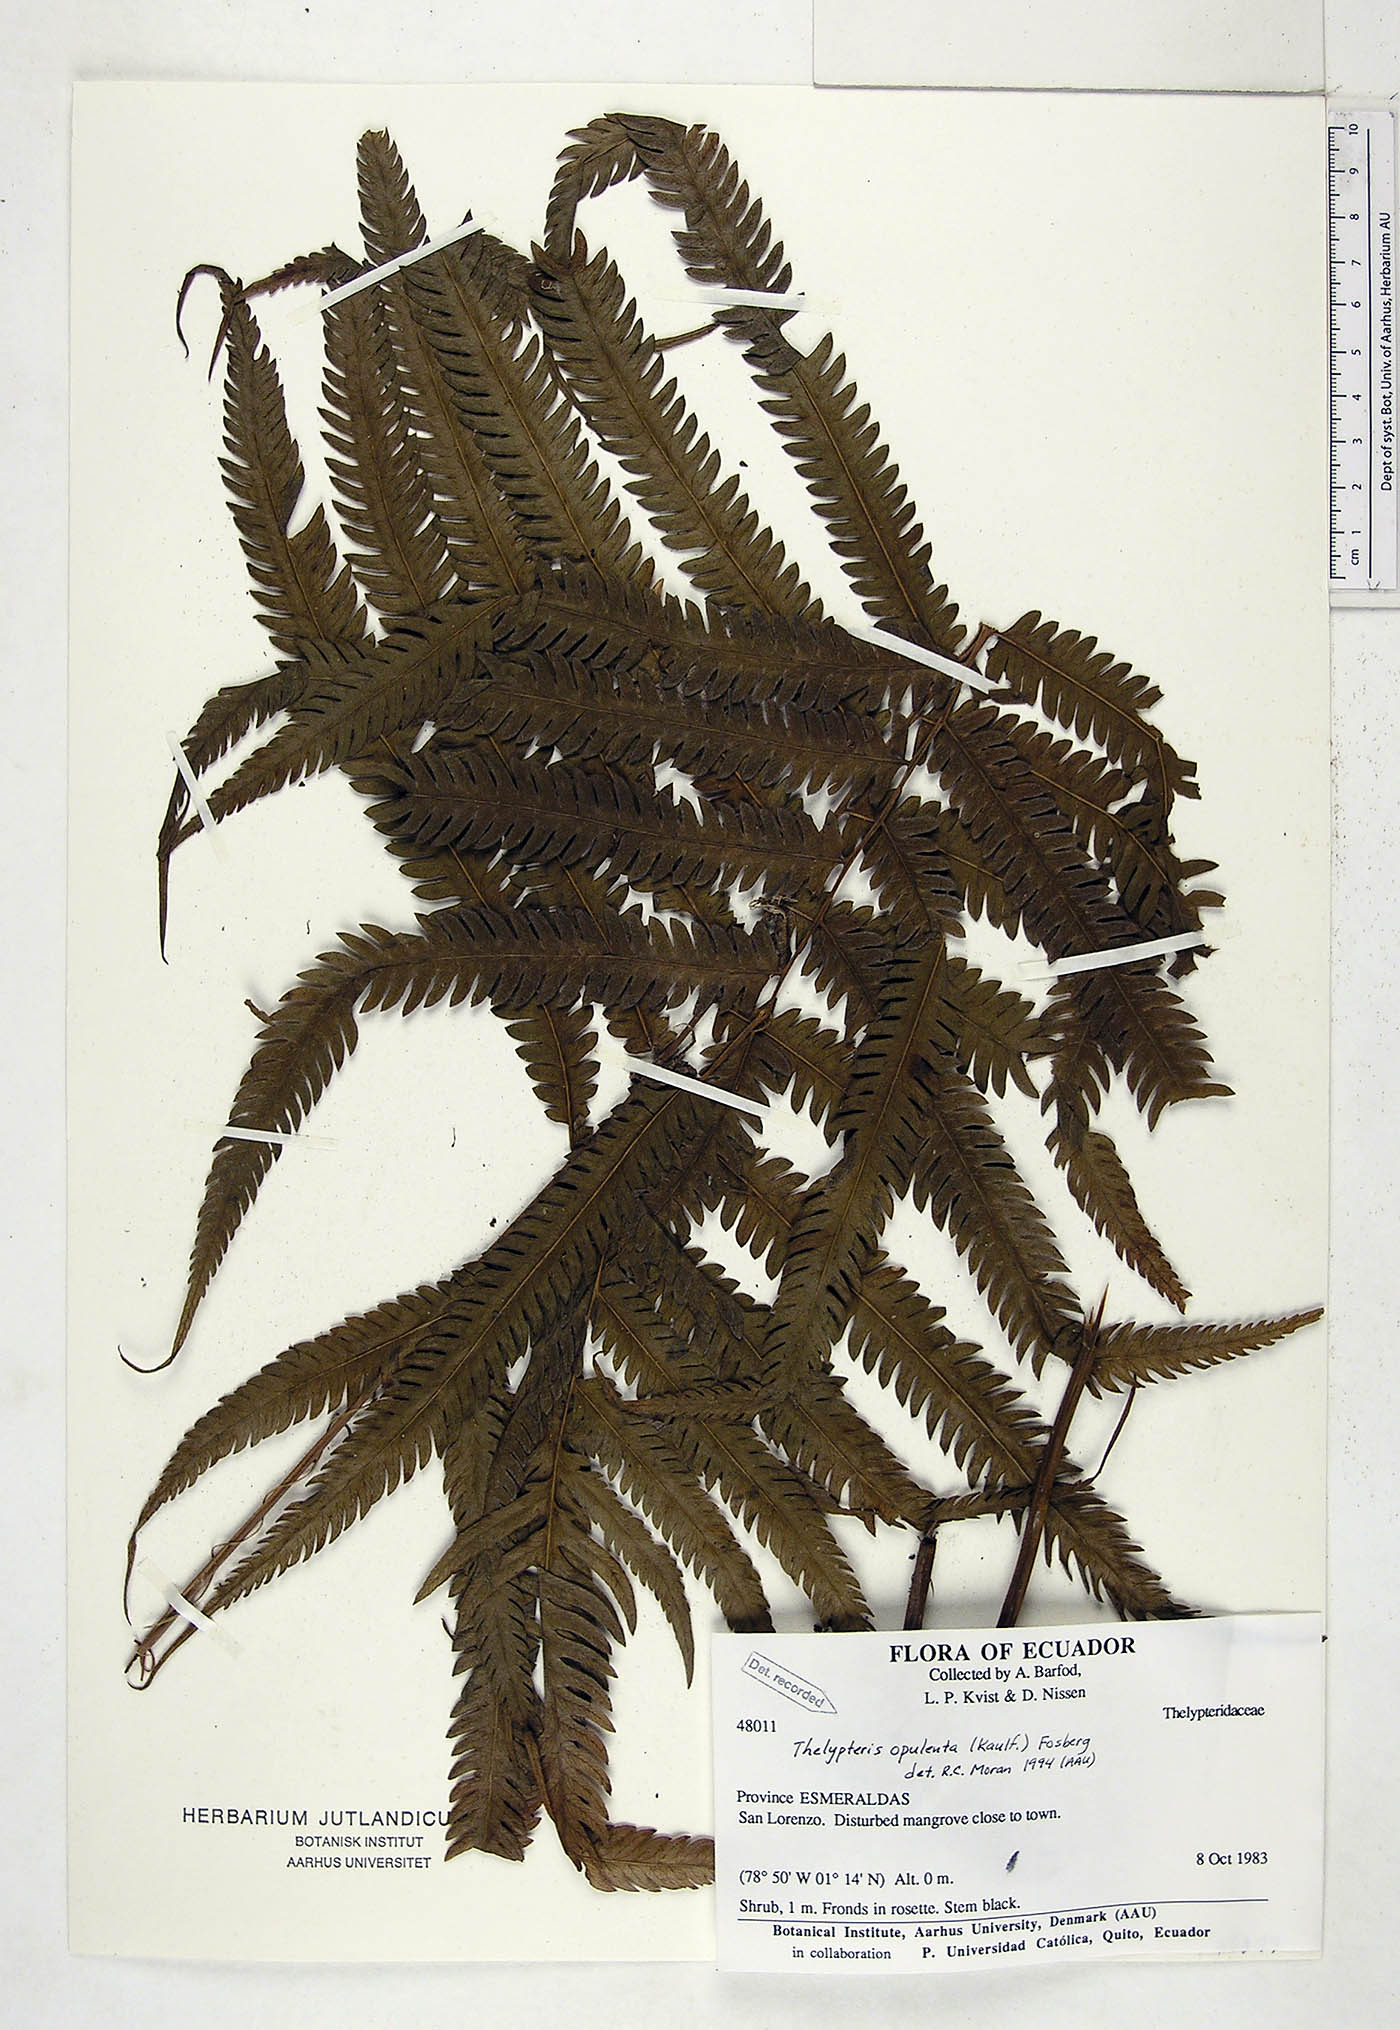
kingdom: Plantae
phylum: Tracheophyta
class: Polypodiopsida
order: Polypodiales
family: Thelypteridaceae
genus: Amblovenatum
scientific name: Amblovenatum opulentum
